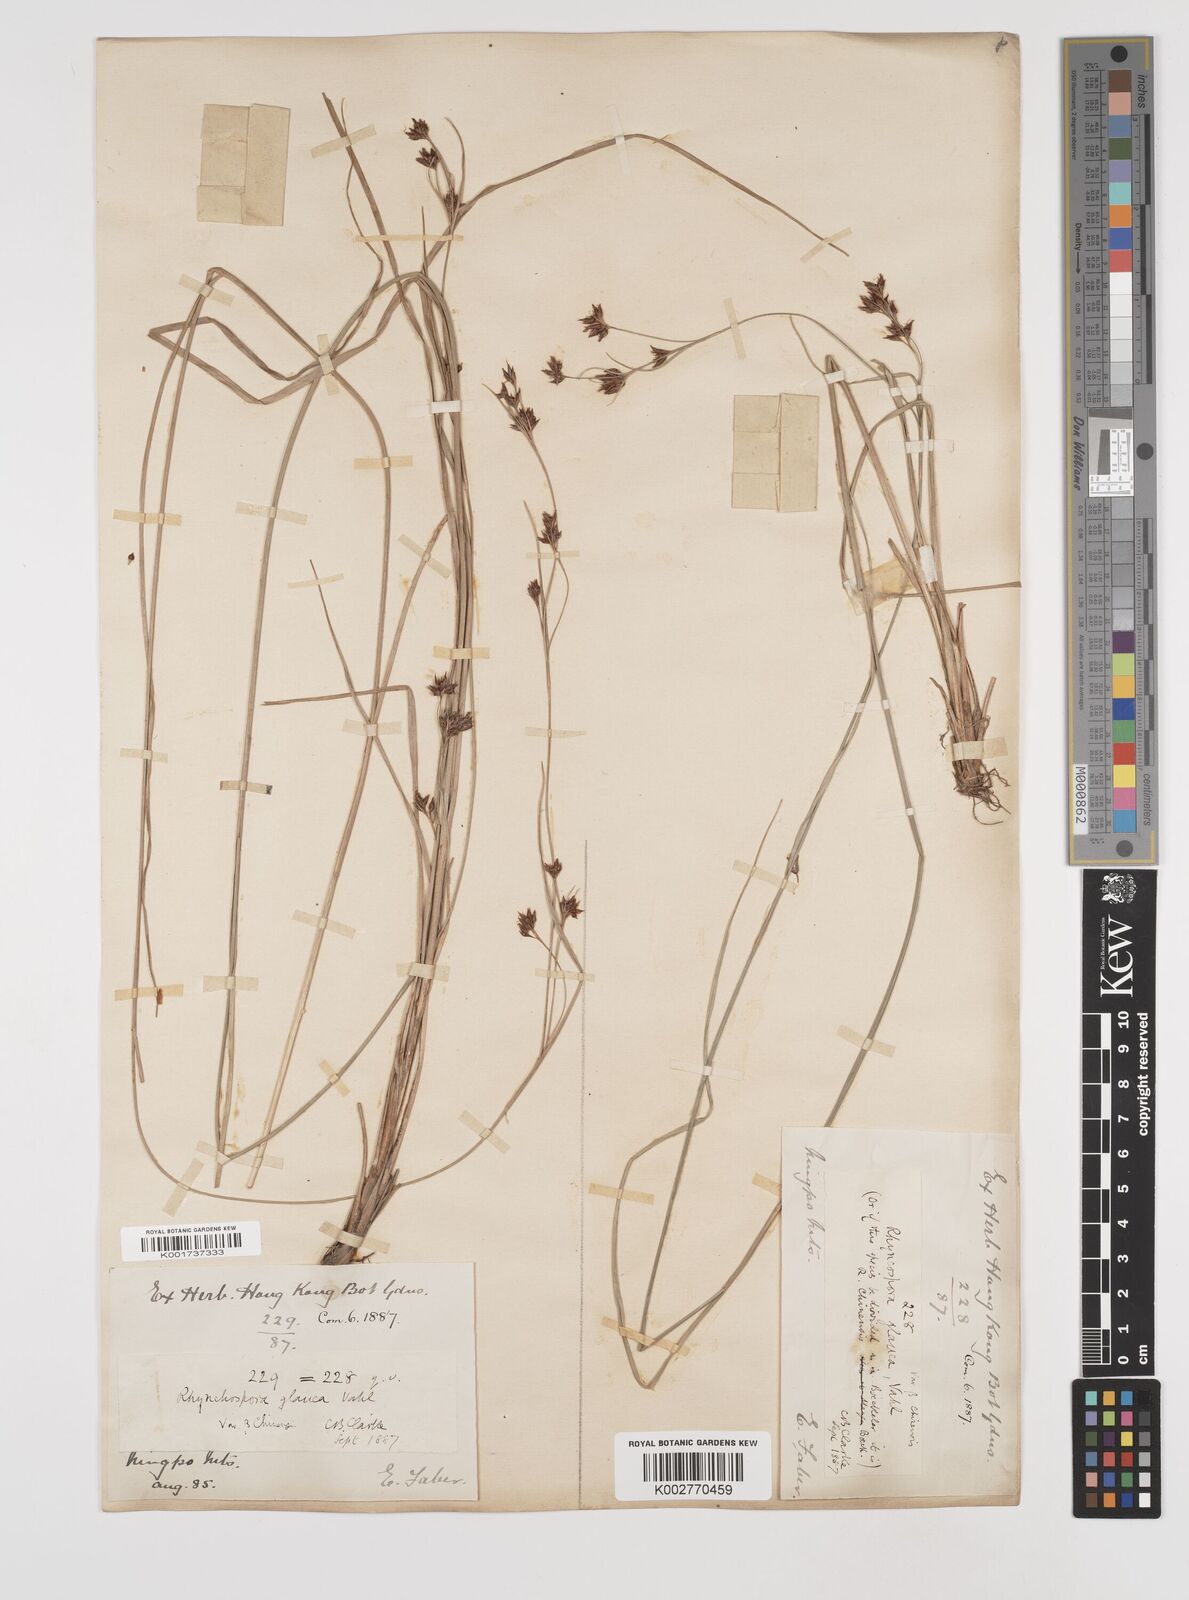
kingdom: Plantae
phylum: Tracheophyta
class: Liliopsida
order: Poales
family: Cyperaceae
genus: Rhynchospora
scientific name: Rhynchospora
